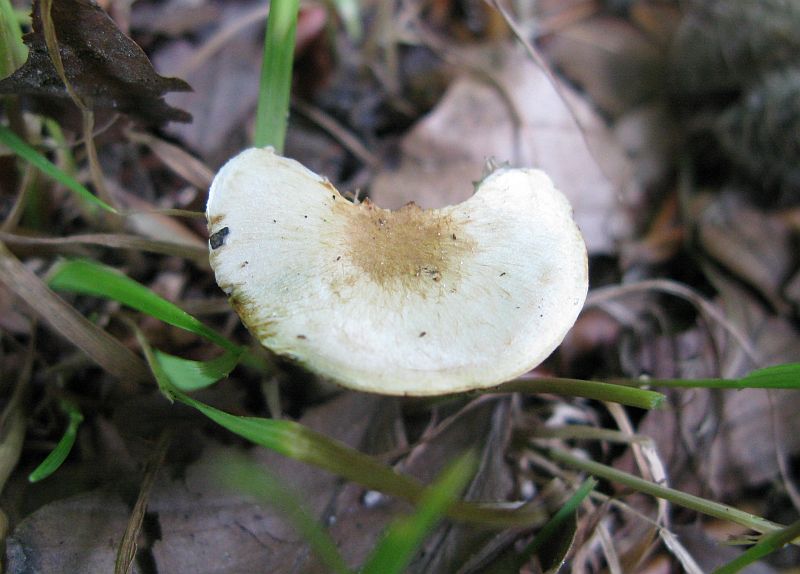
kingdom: Fungi
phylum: Basidiomycota
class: Agaricomycetes
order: Agaricales
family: Agaricaceae
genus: Agaricus
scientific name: Agaricus dulcidulus
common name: blegrød champignon
